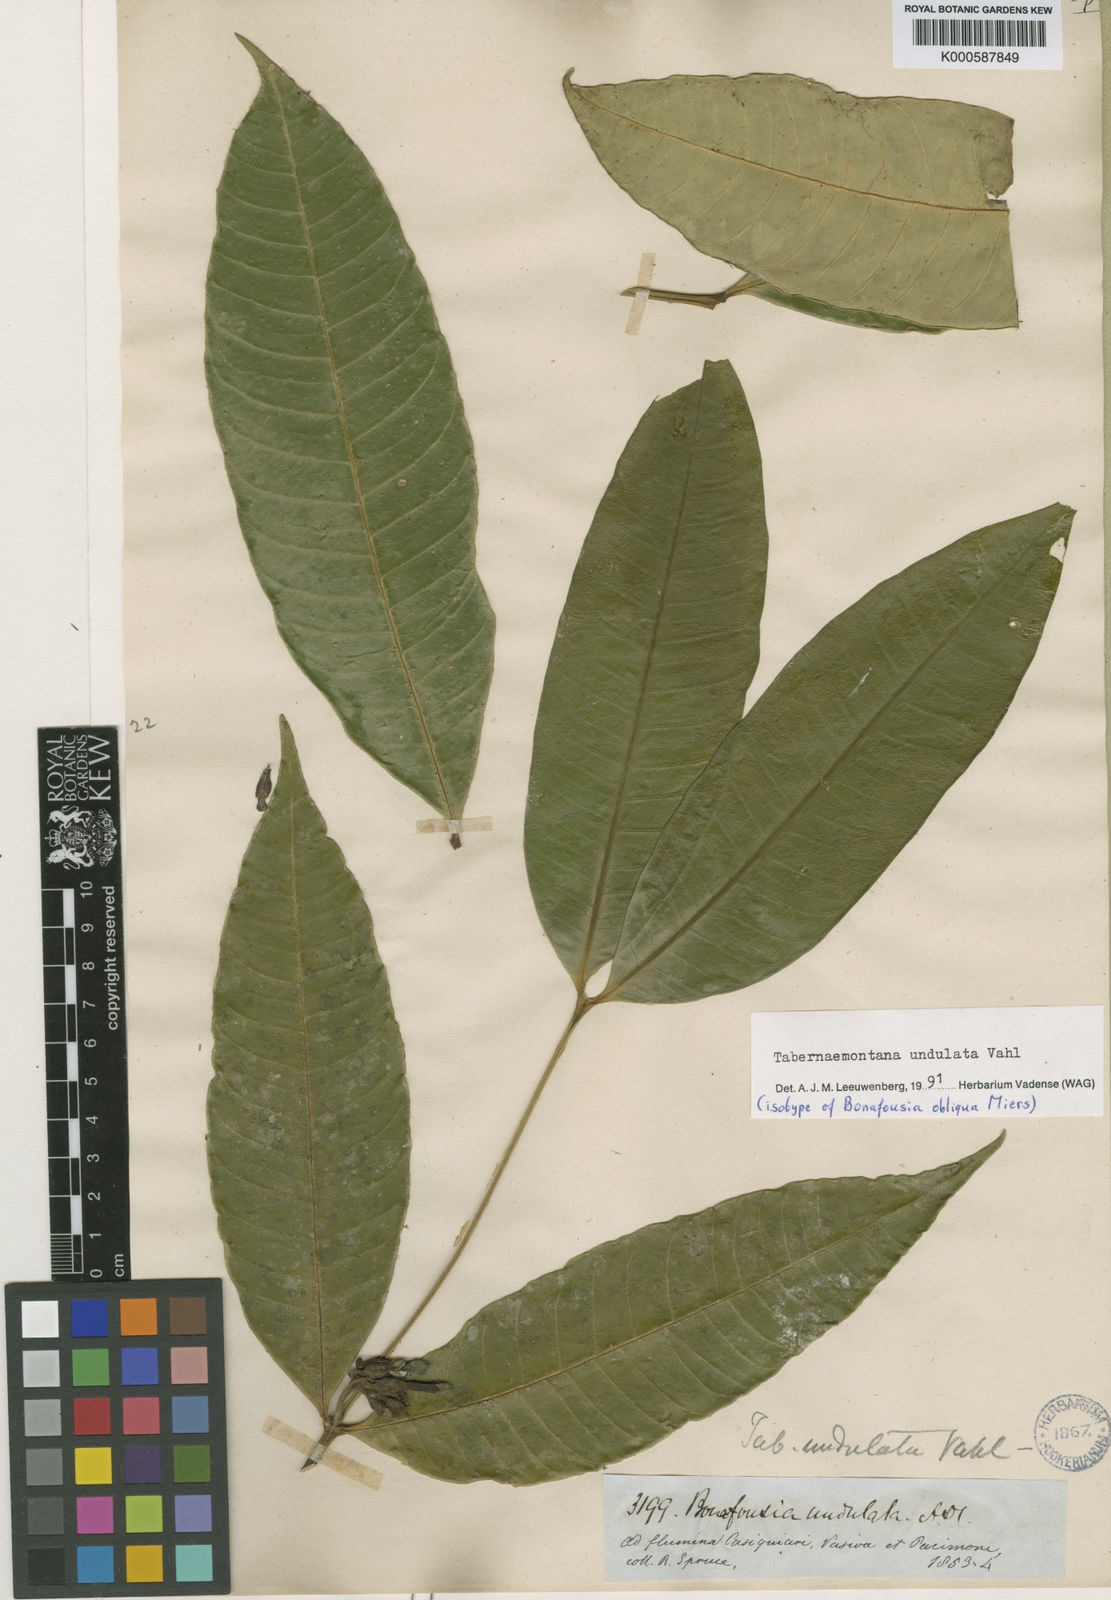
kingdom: Plantae
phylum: Tracheophyta
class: Magnoliopsida
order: Gentianales
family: Apocynaceae
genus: Tabernaemontana
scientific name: Tabernaemontana undulata
